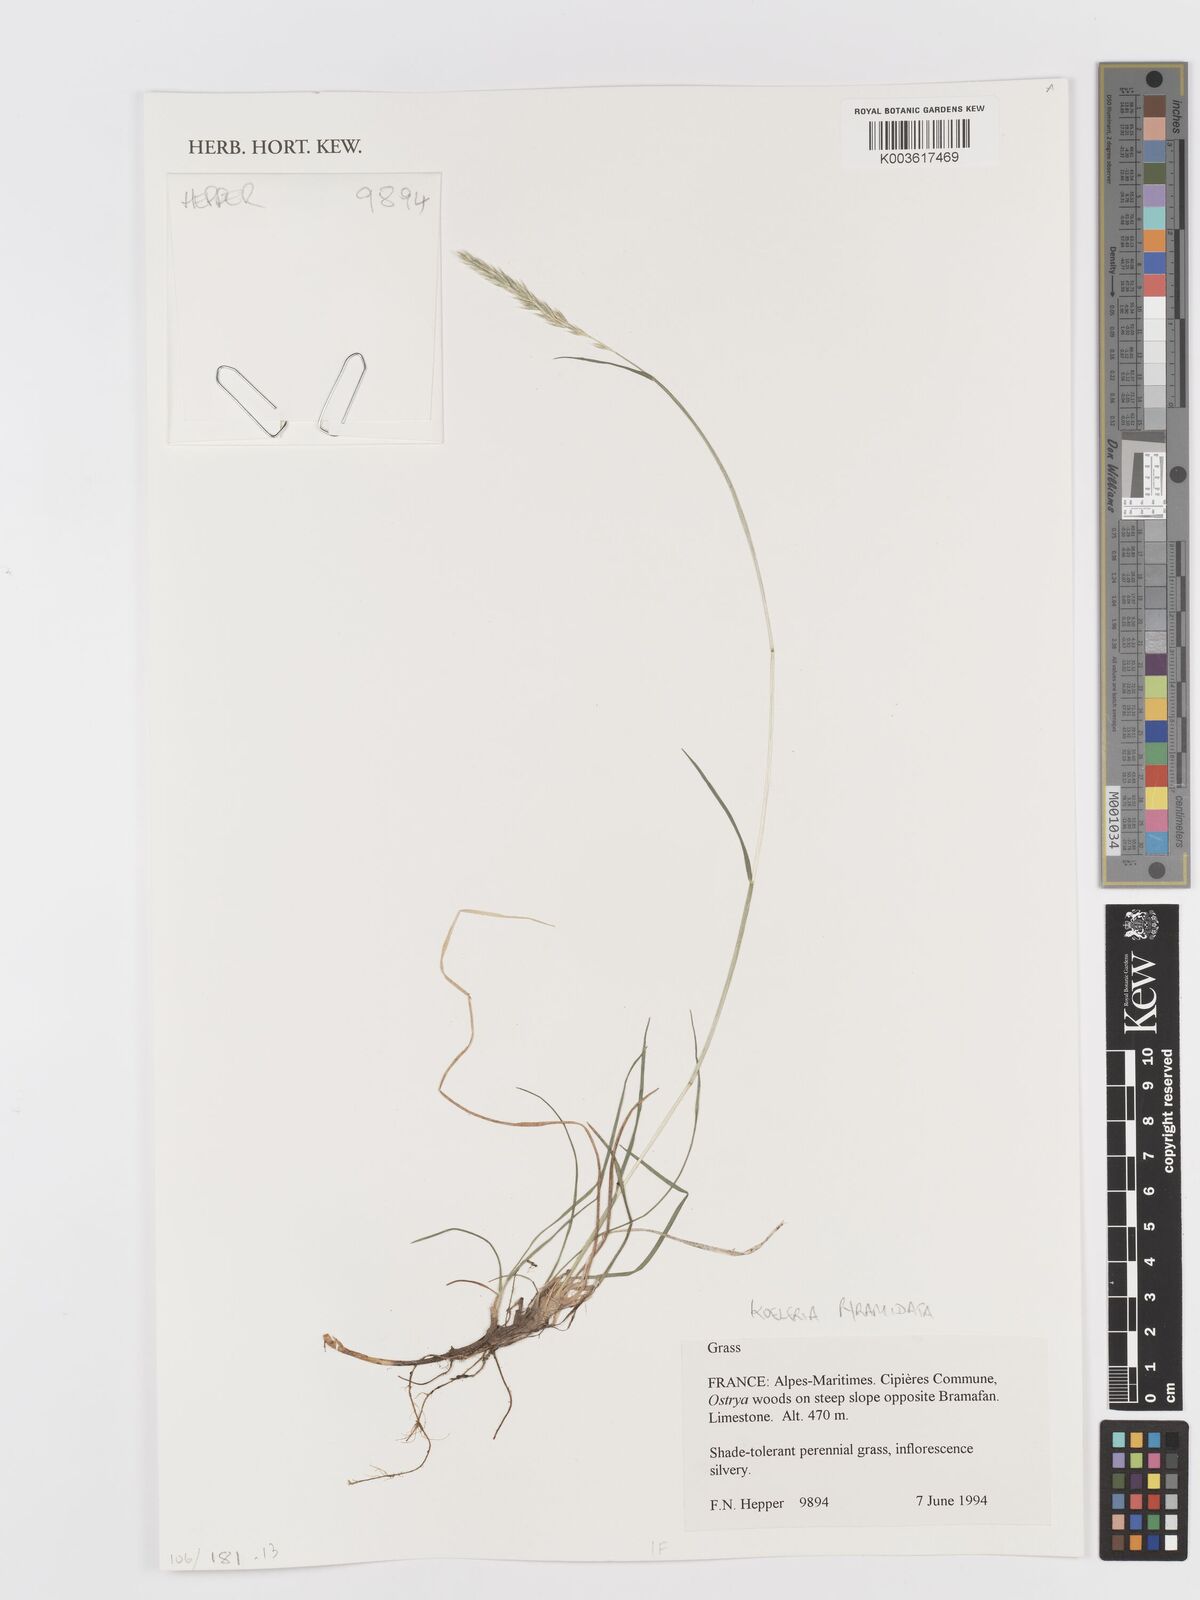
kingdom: Plantae
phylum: Tracheophyta
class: Liliopsida
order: Poales
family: Poaceae
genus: Koeleria
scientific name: Koeleria pyramidata
